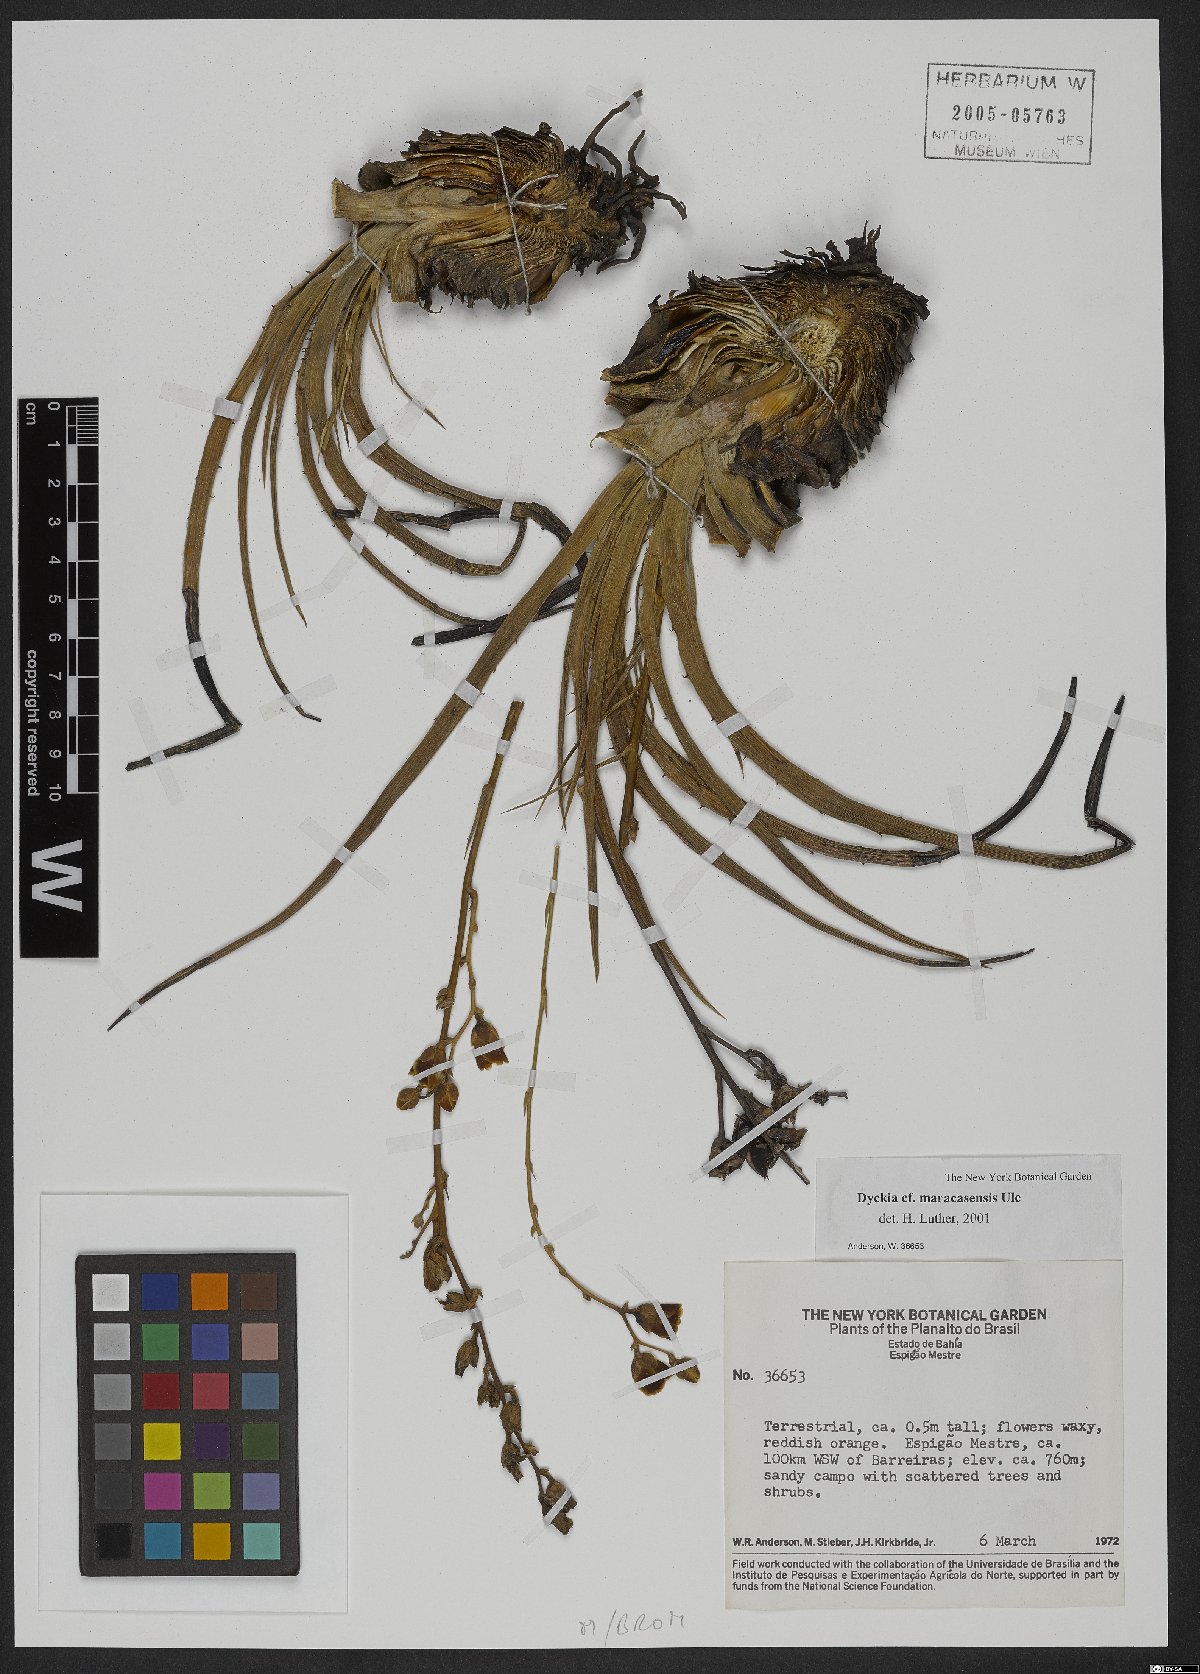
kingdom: Plantae
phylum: Tracheophyta
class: Liliopsida
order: Poales
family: Bromeliaceae
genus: Dyckia
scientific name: Dyckia maracasensis
